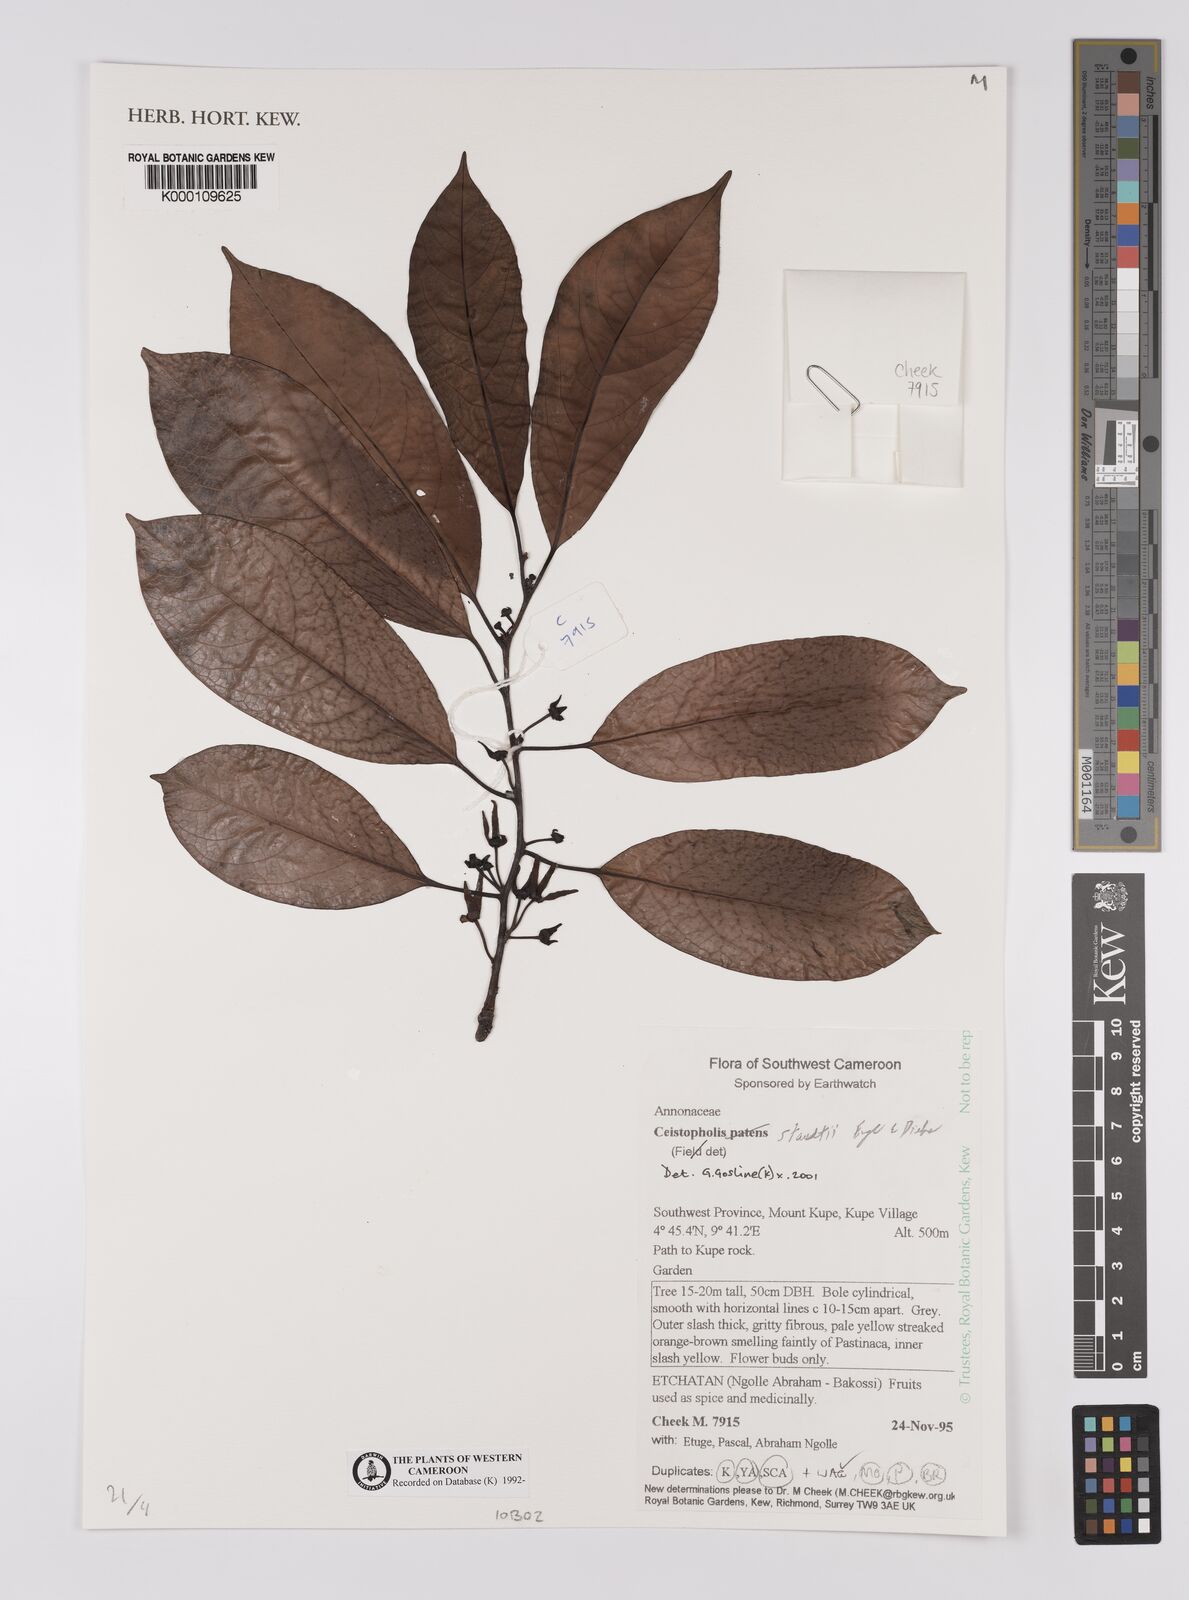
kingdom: Plantae
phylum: Tracheophyta
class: Magnoliopsida
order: Magnoliales
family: Annonaceae
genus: Cleistopholis
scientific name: Cleistopholis staudtii
